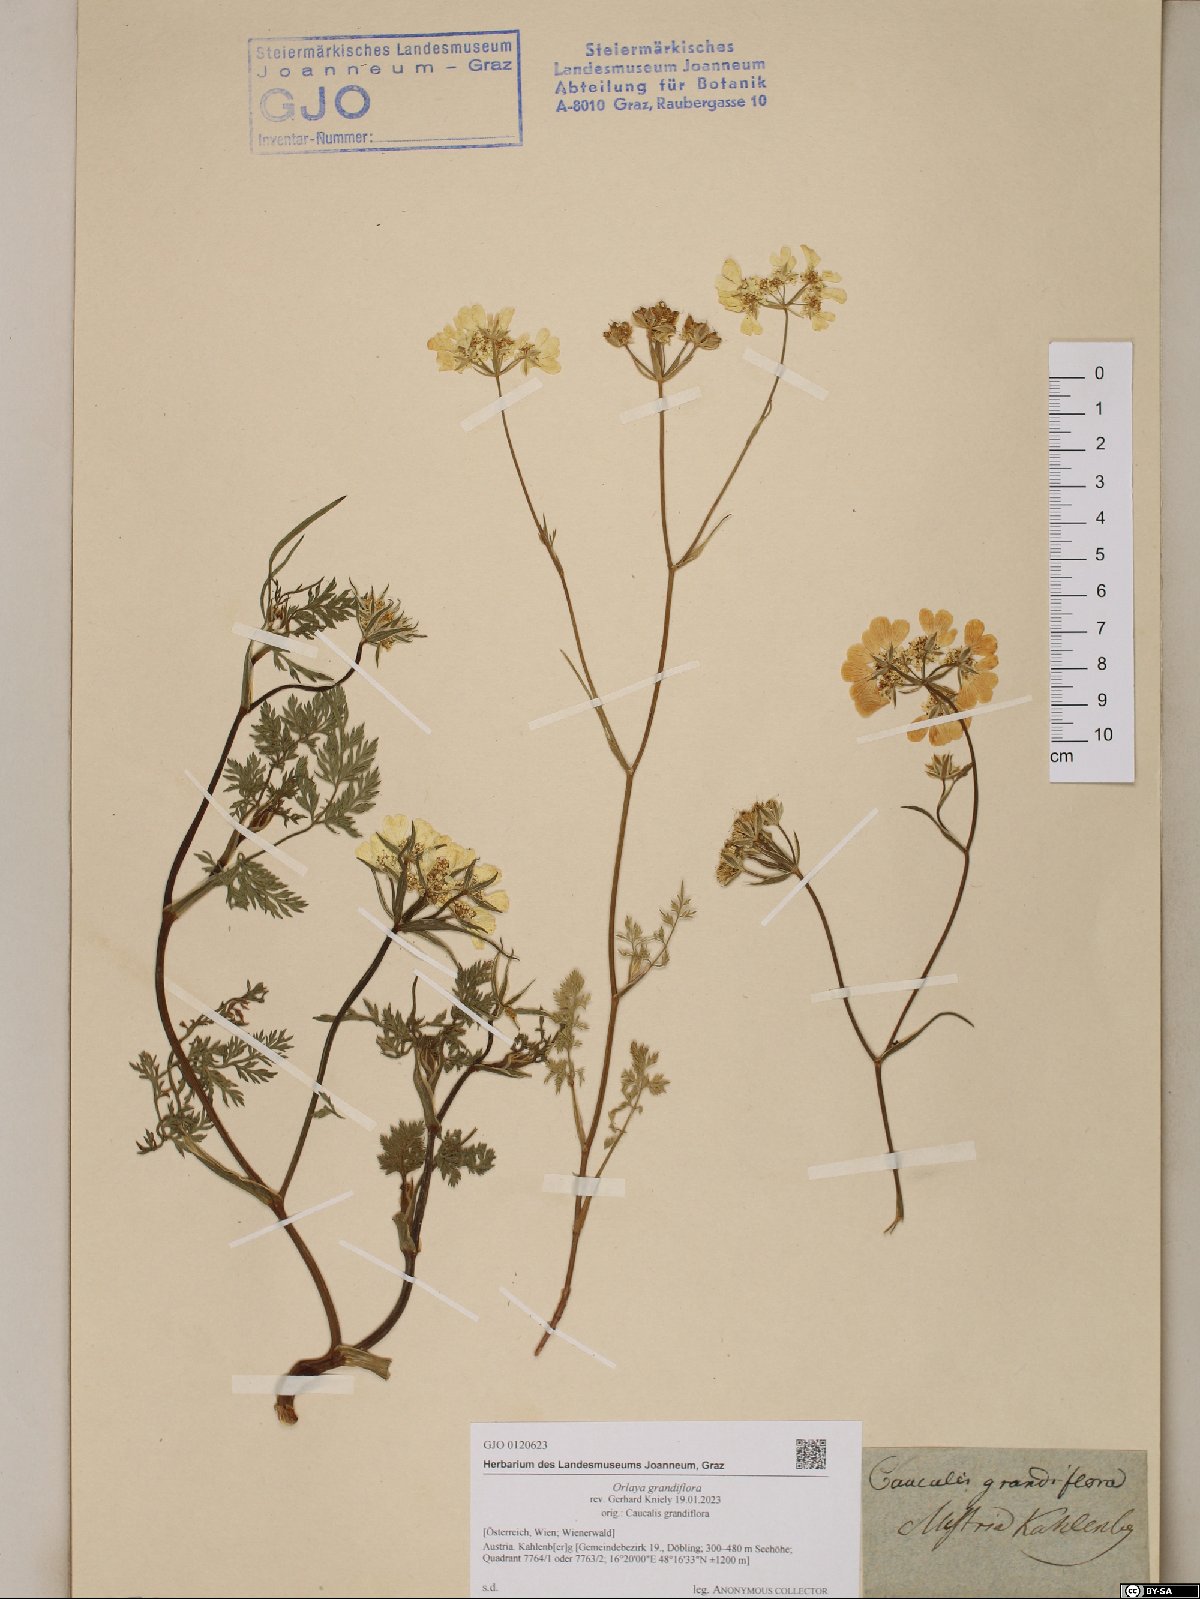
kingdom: Plantae
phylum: Tracheophyta
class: Magnoliopsida
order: Apiales
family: Apiaceae
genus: Orlaya
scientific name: Orlaya grandiflora
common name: White lace flower
